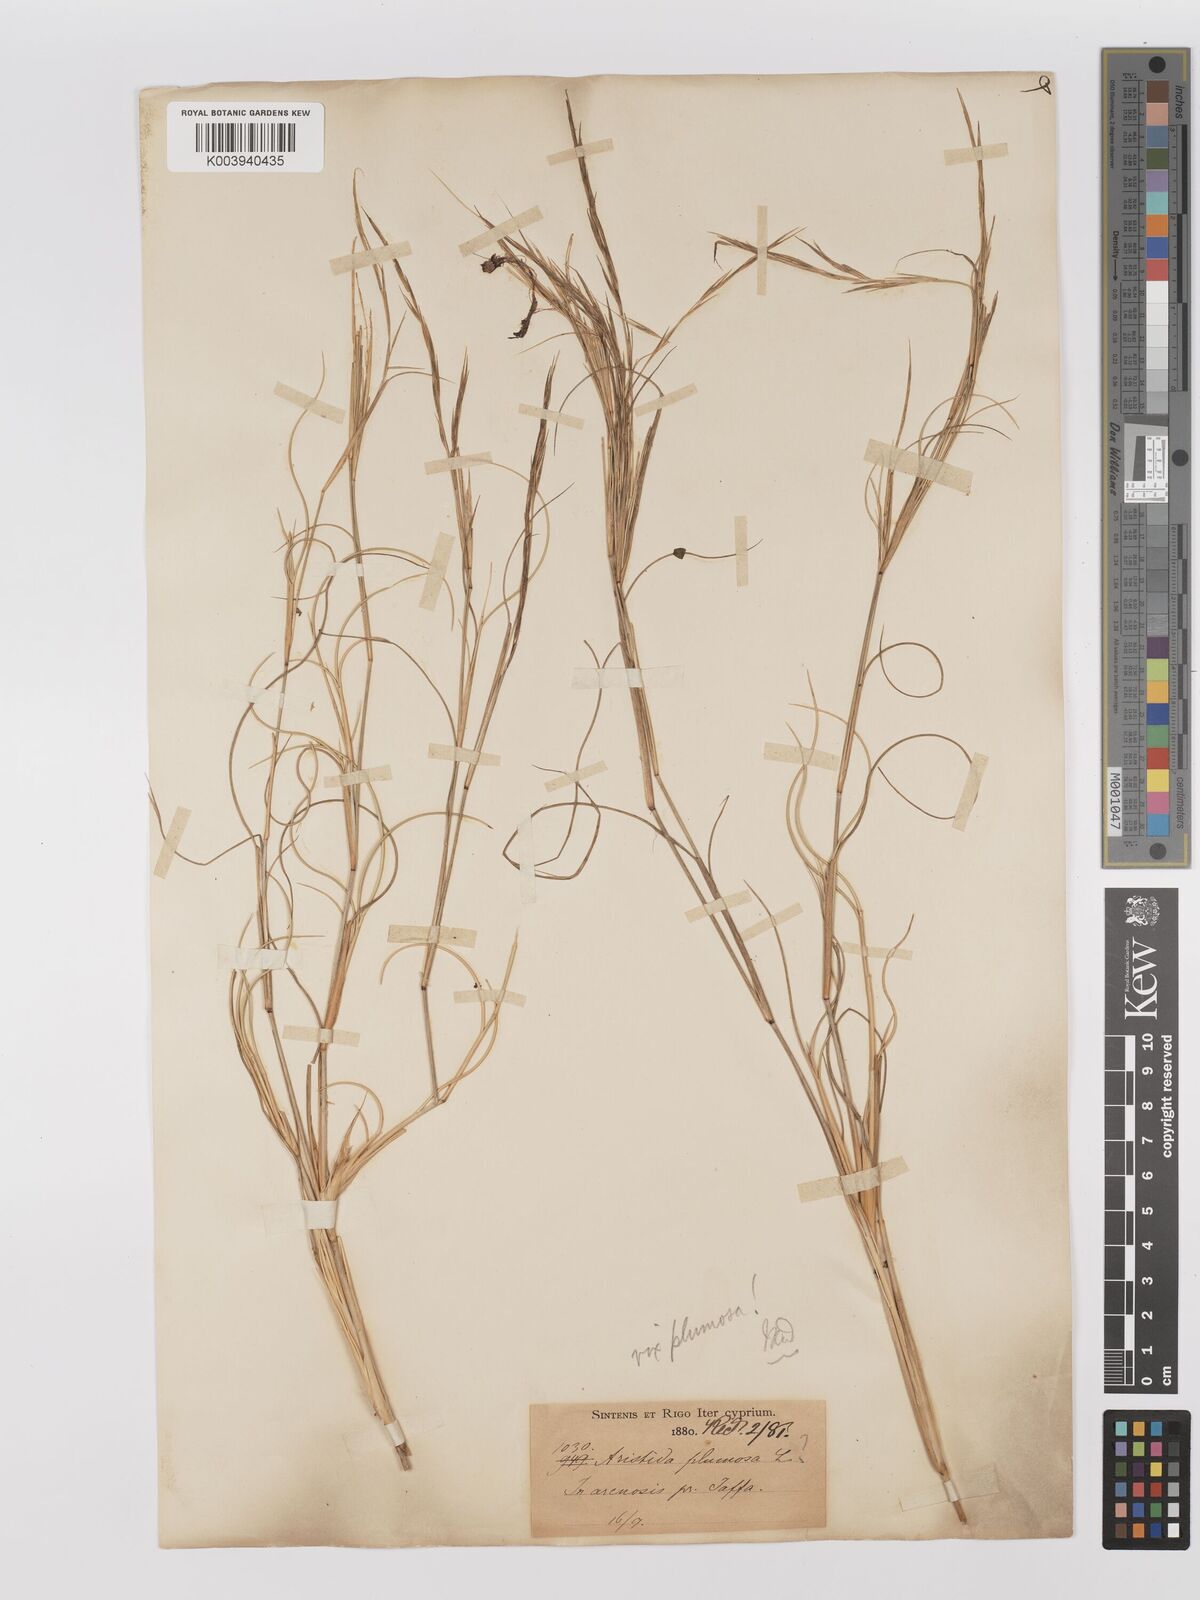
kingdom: Plantae
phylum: Tracheophyta
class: Liliopsida
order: Poales
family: Poaceae
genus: Stipagrostis
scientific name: Stipagrostis plumosa
